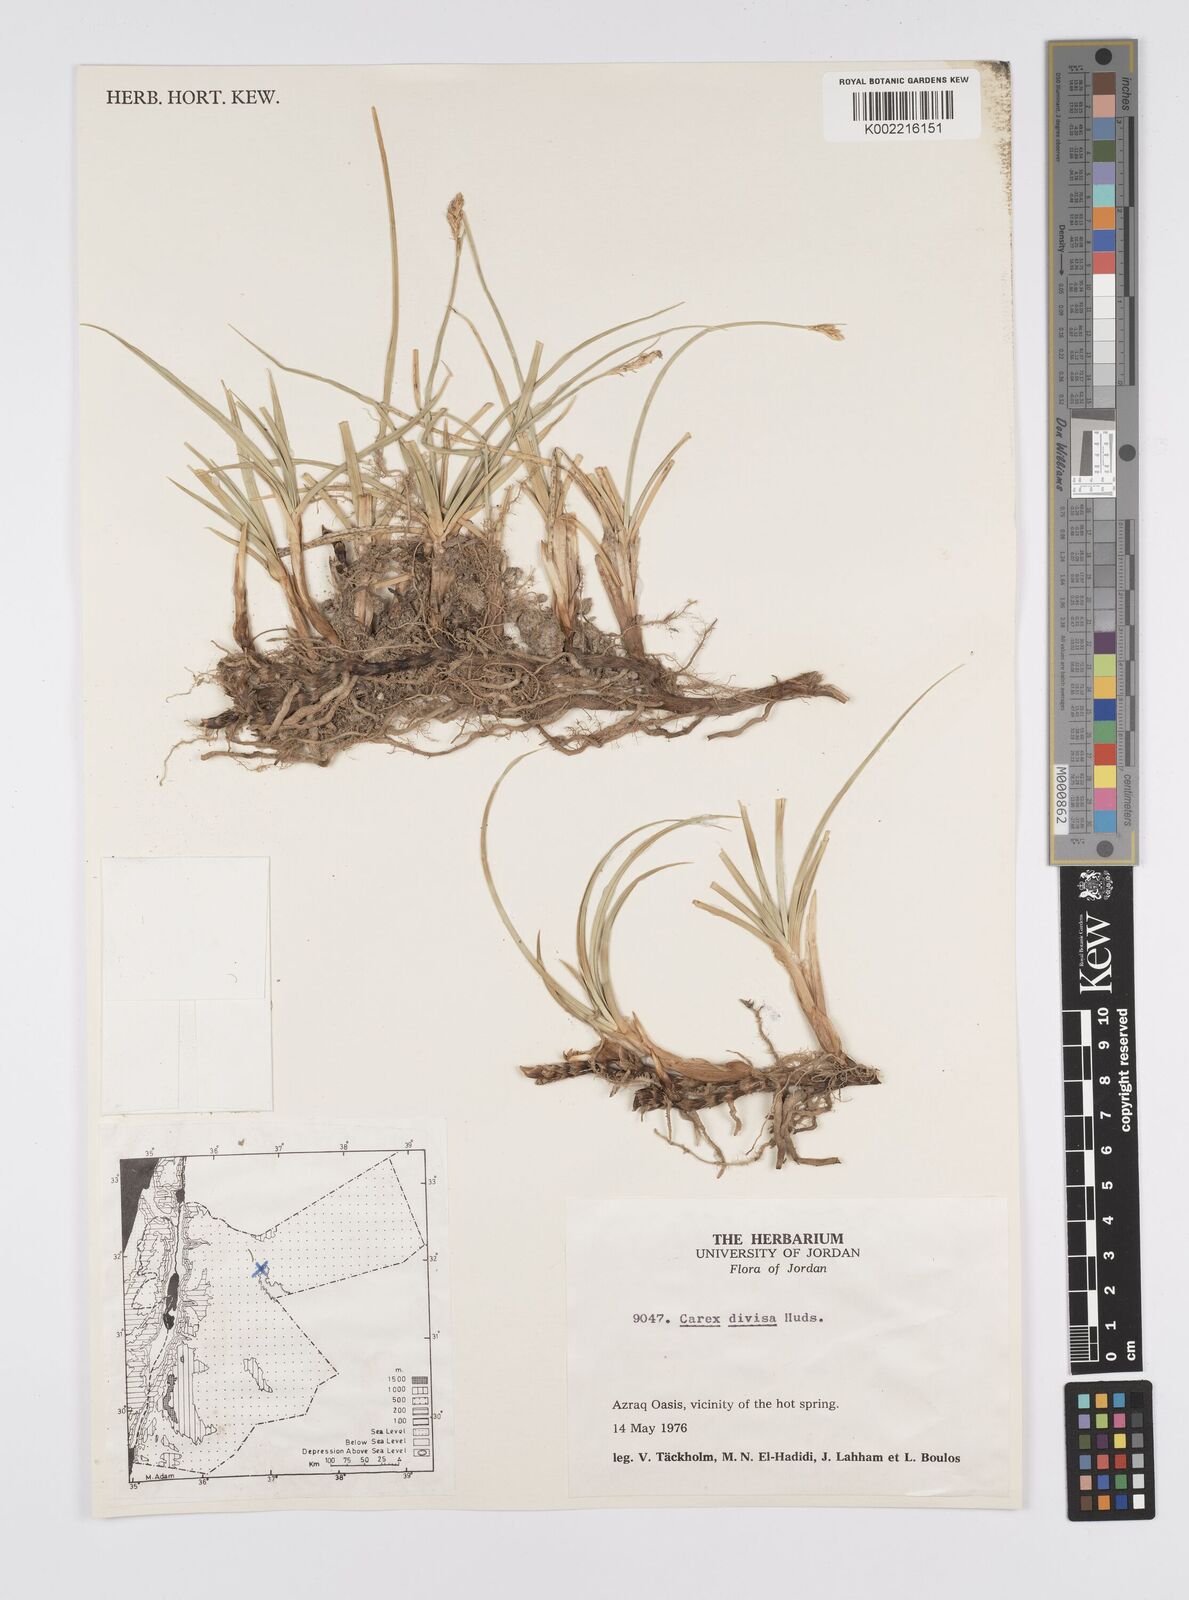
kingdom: Plantae
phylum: Tracheophyta
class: Liliopsida
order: Poales
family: Cyperaceae
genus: Carex
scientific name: Carex divisa
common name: Divided sedge
